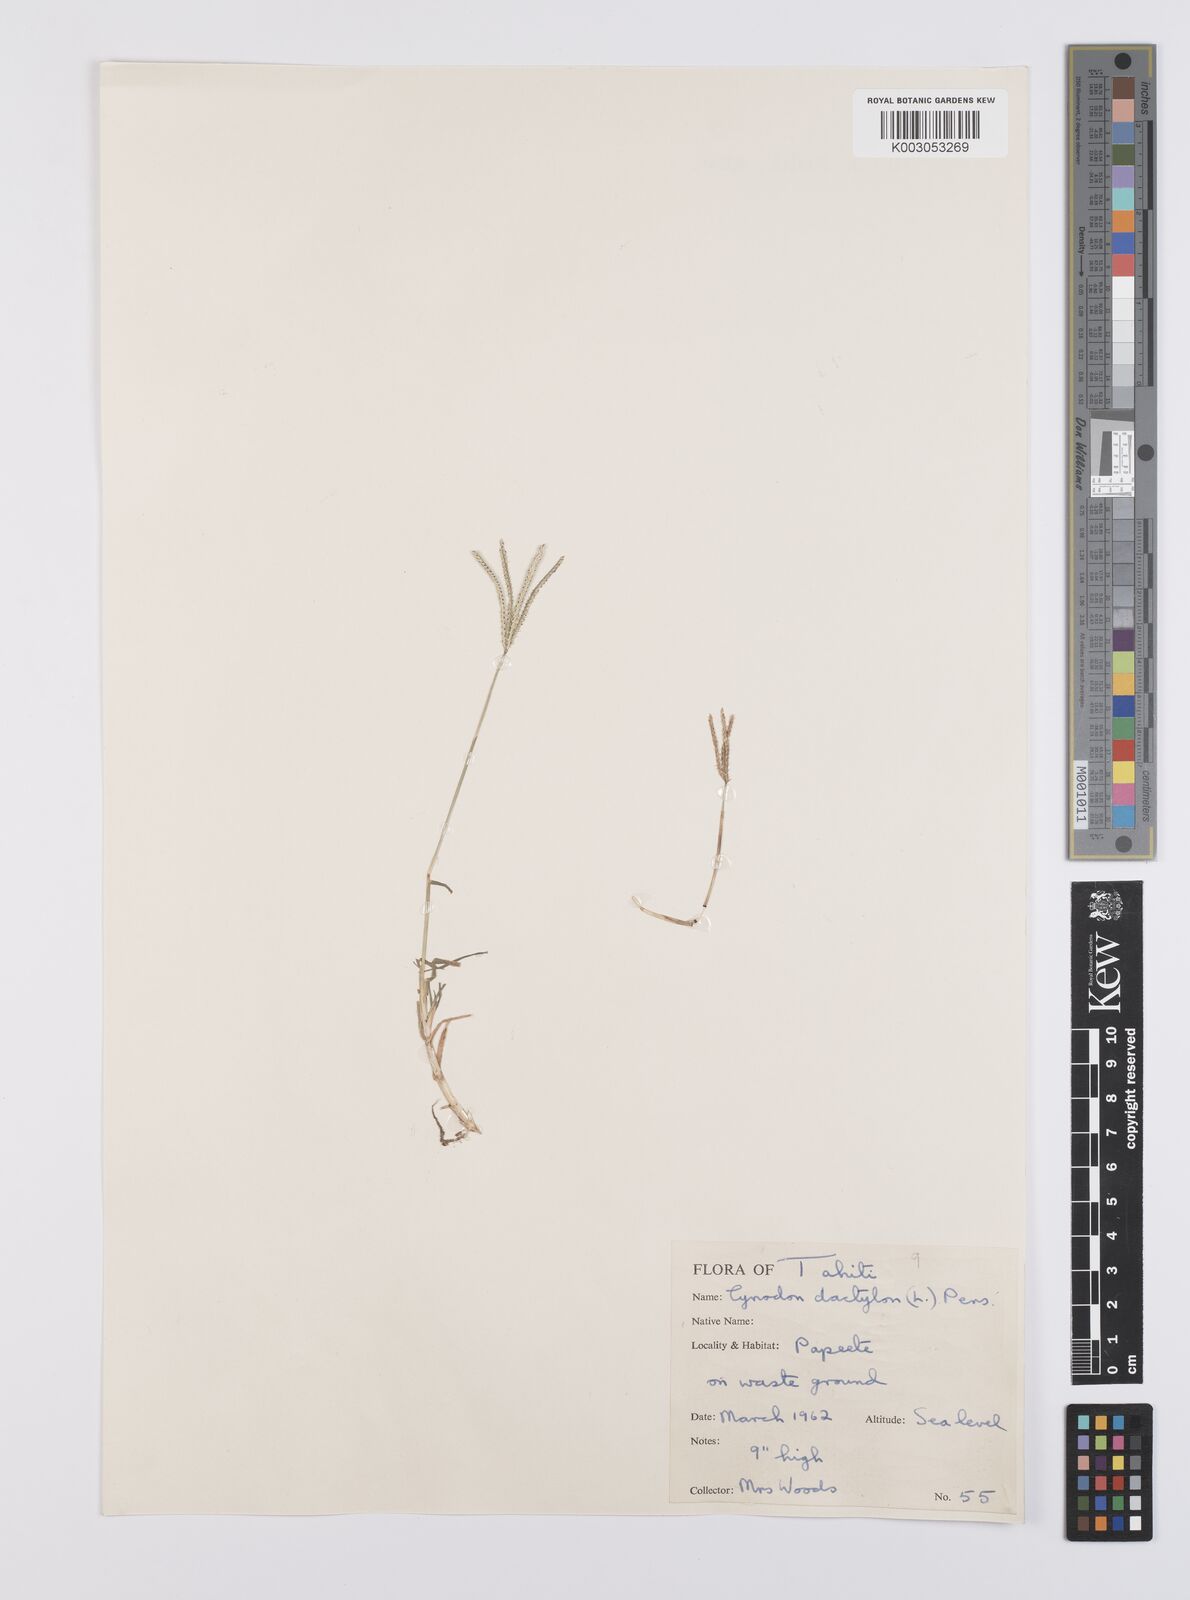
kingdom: Plantae
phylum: Tracheophyta
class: Liliopsida
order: Poales
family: Poaceae
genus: Cynodon
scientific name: Cynodon dactylon
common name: Bermuda grass
